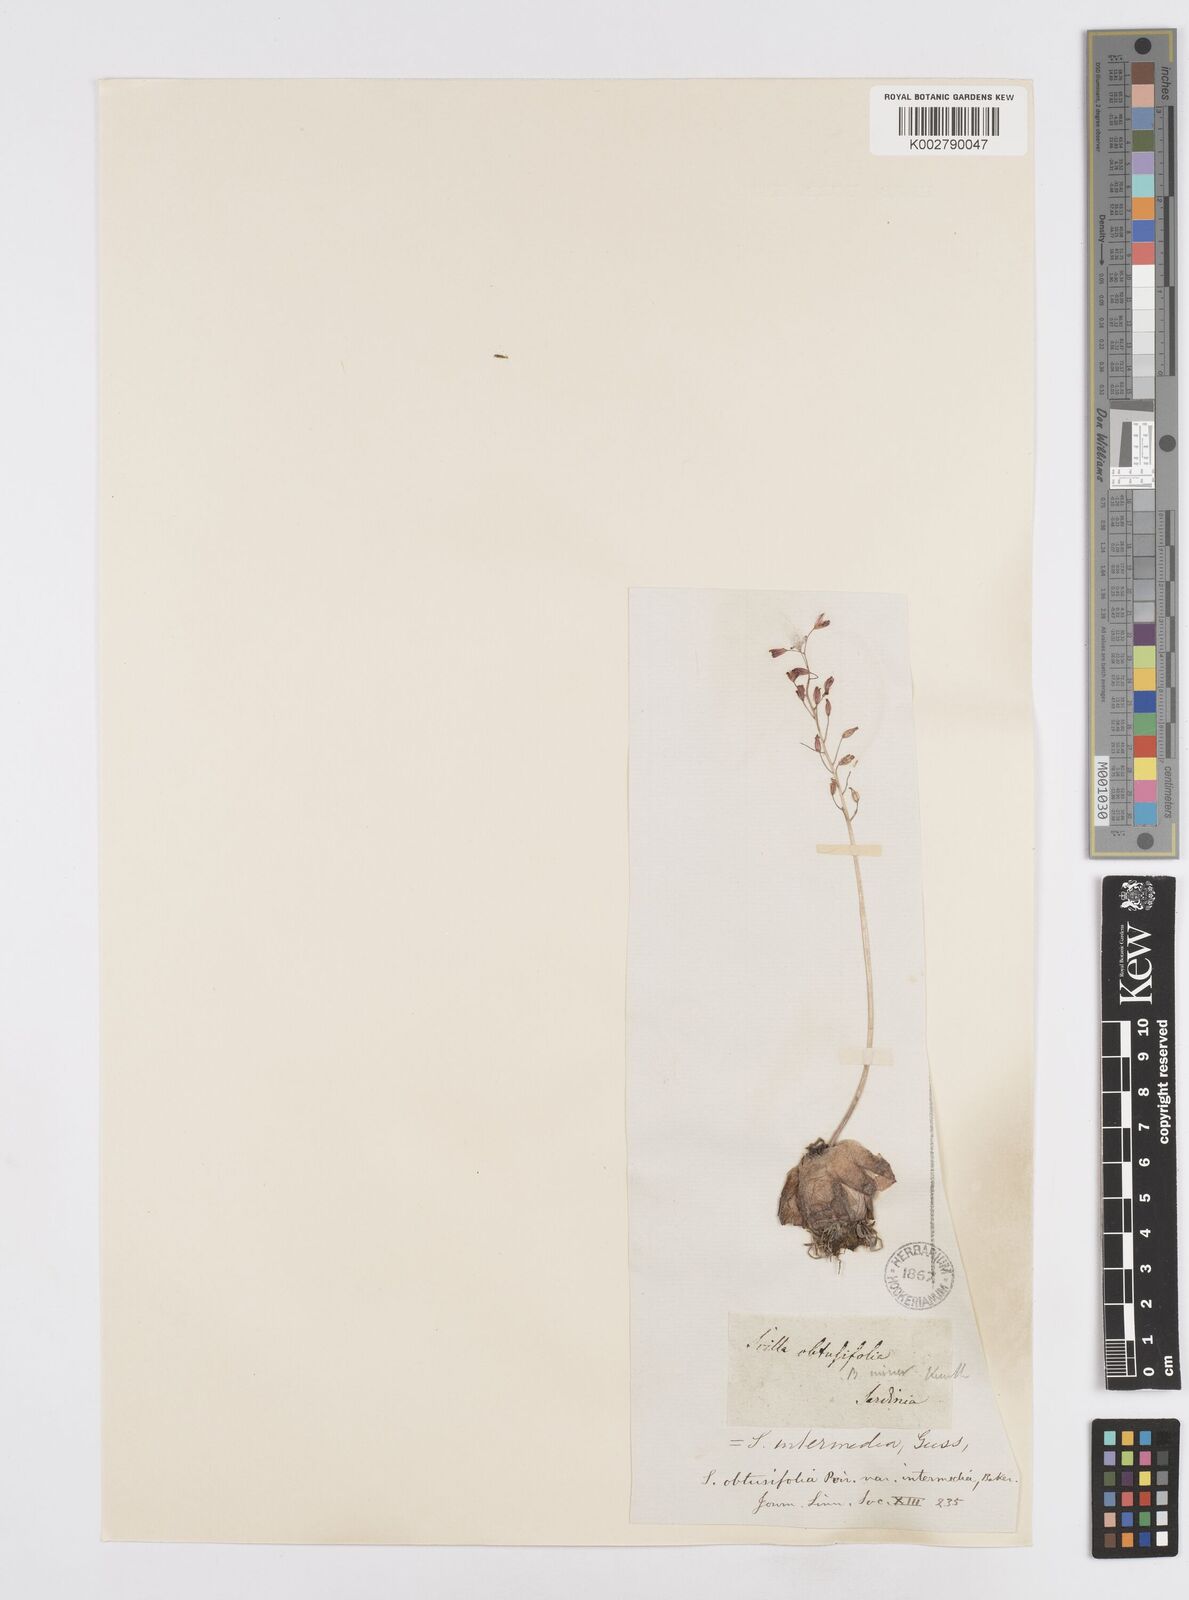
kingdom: Plantae
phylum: Tracheophyta
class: Liliopsida
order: Asparagales
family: Asparagaceae
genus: Prospero
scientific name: Prospero obtusifolium
